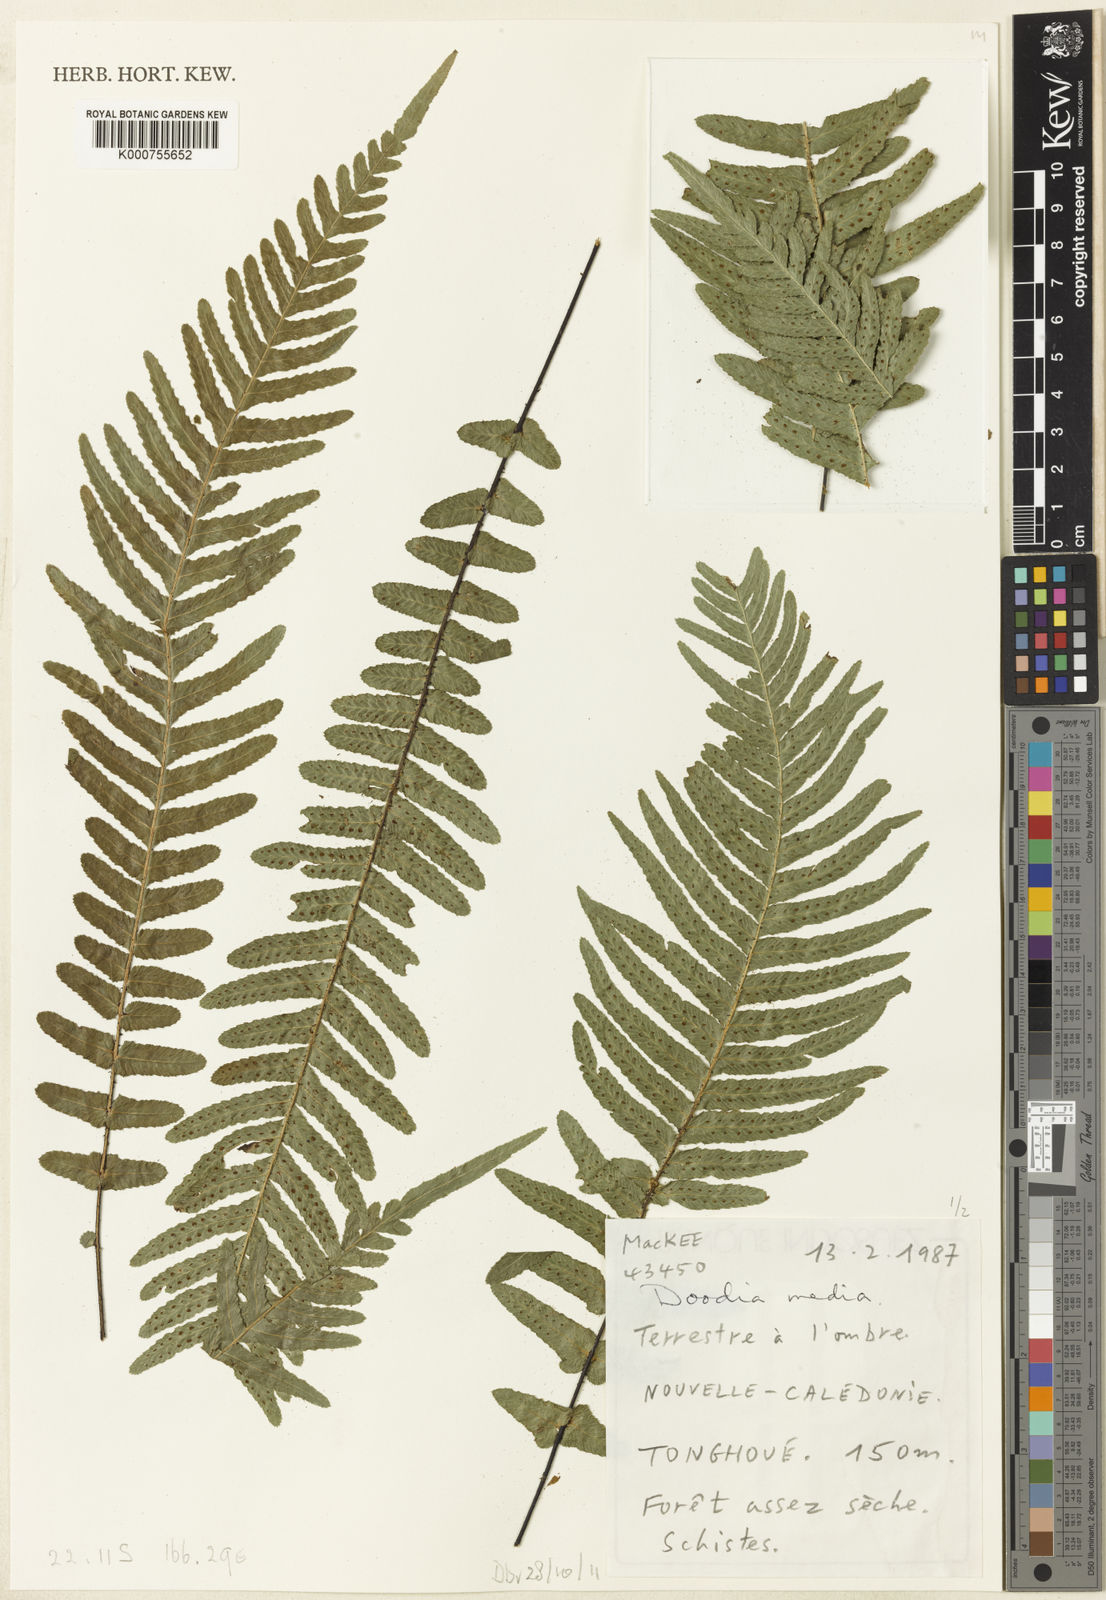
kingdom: Plantae
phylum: Tracheophyta
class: Polypodiopsida
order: Polypodiales
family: Blechnaceae
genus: Doodia
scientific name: Doodia media
